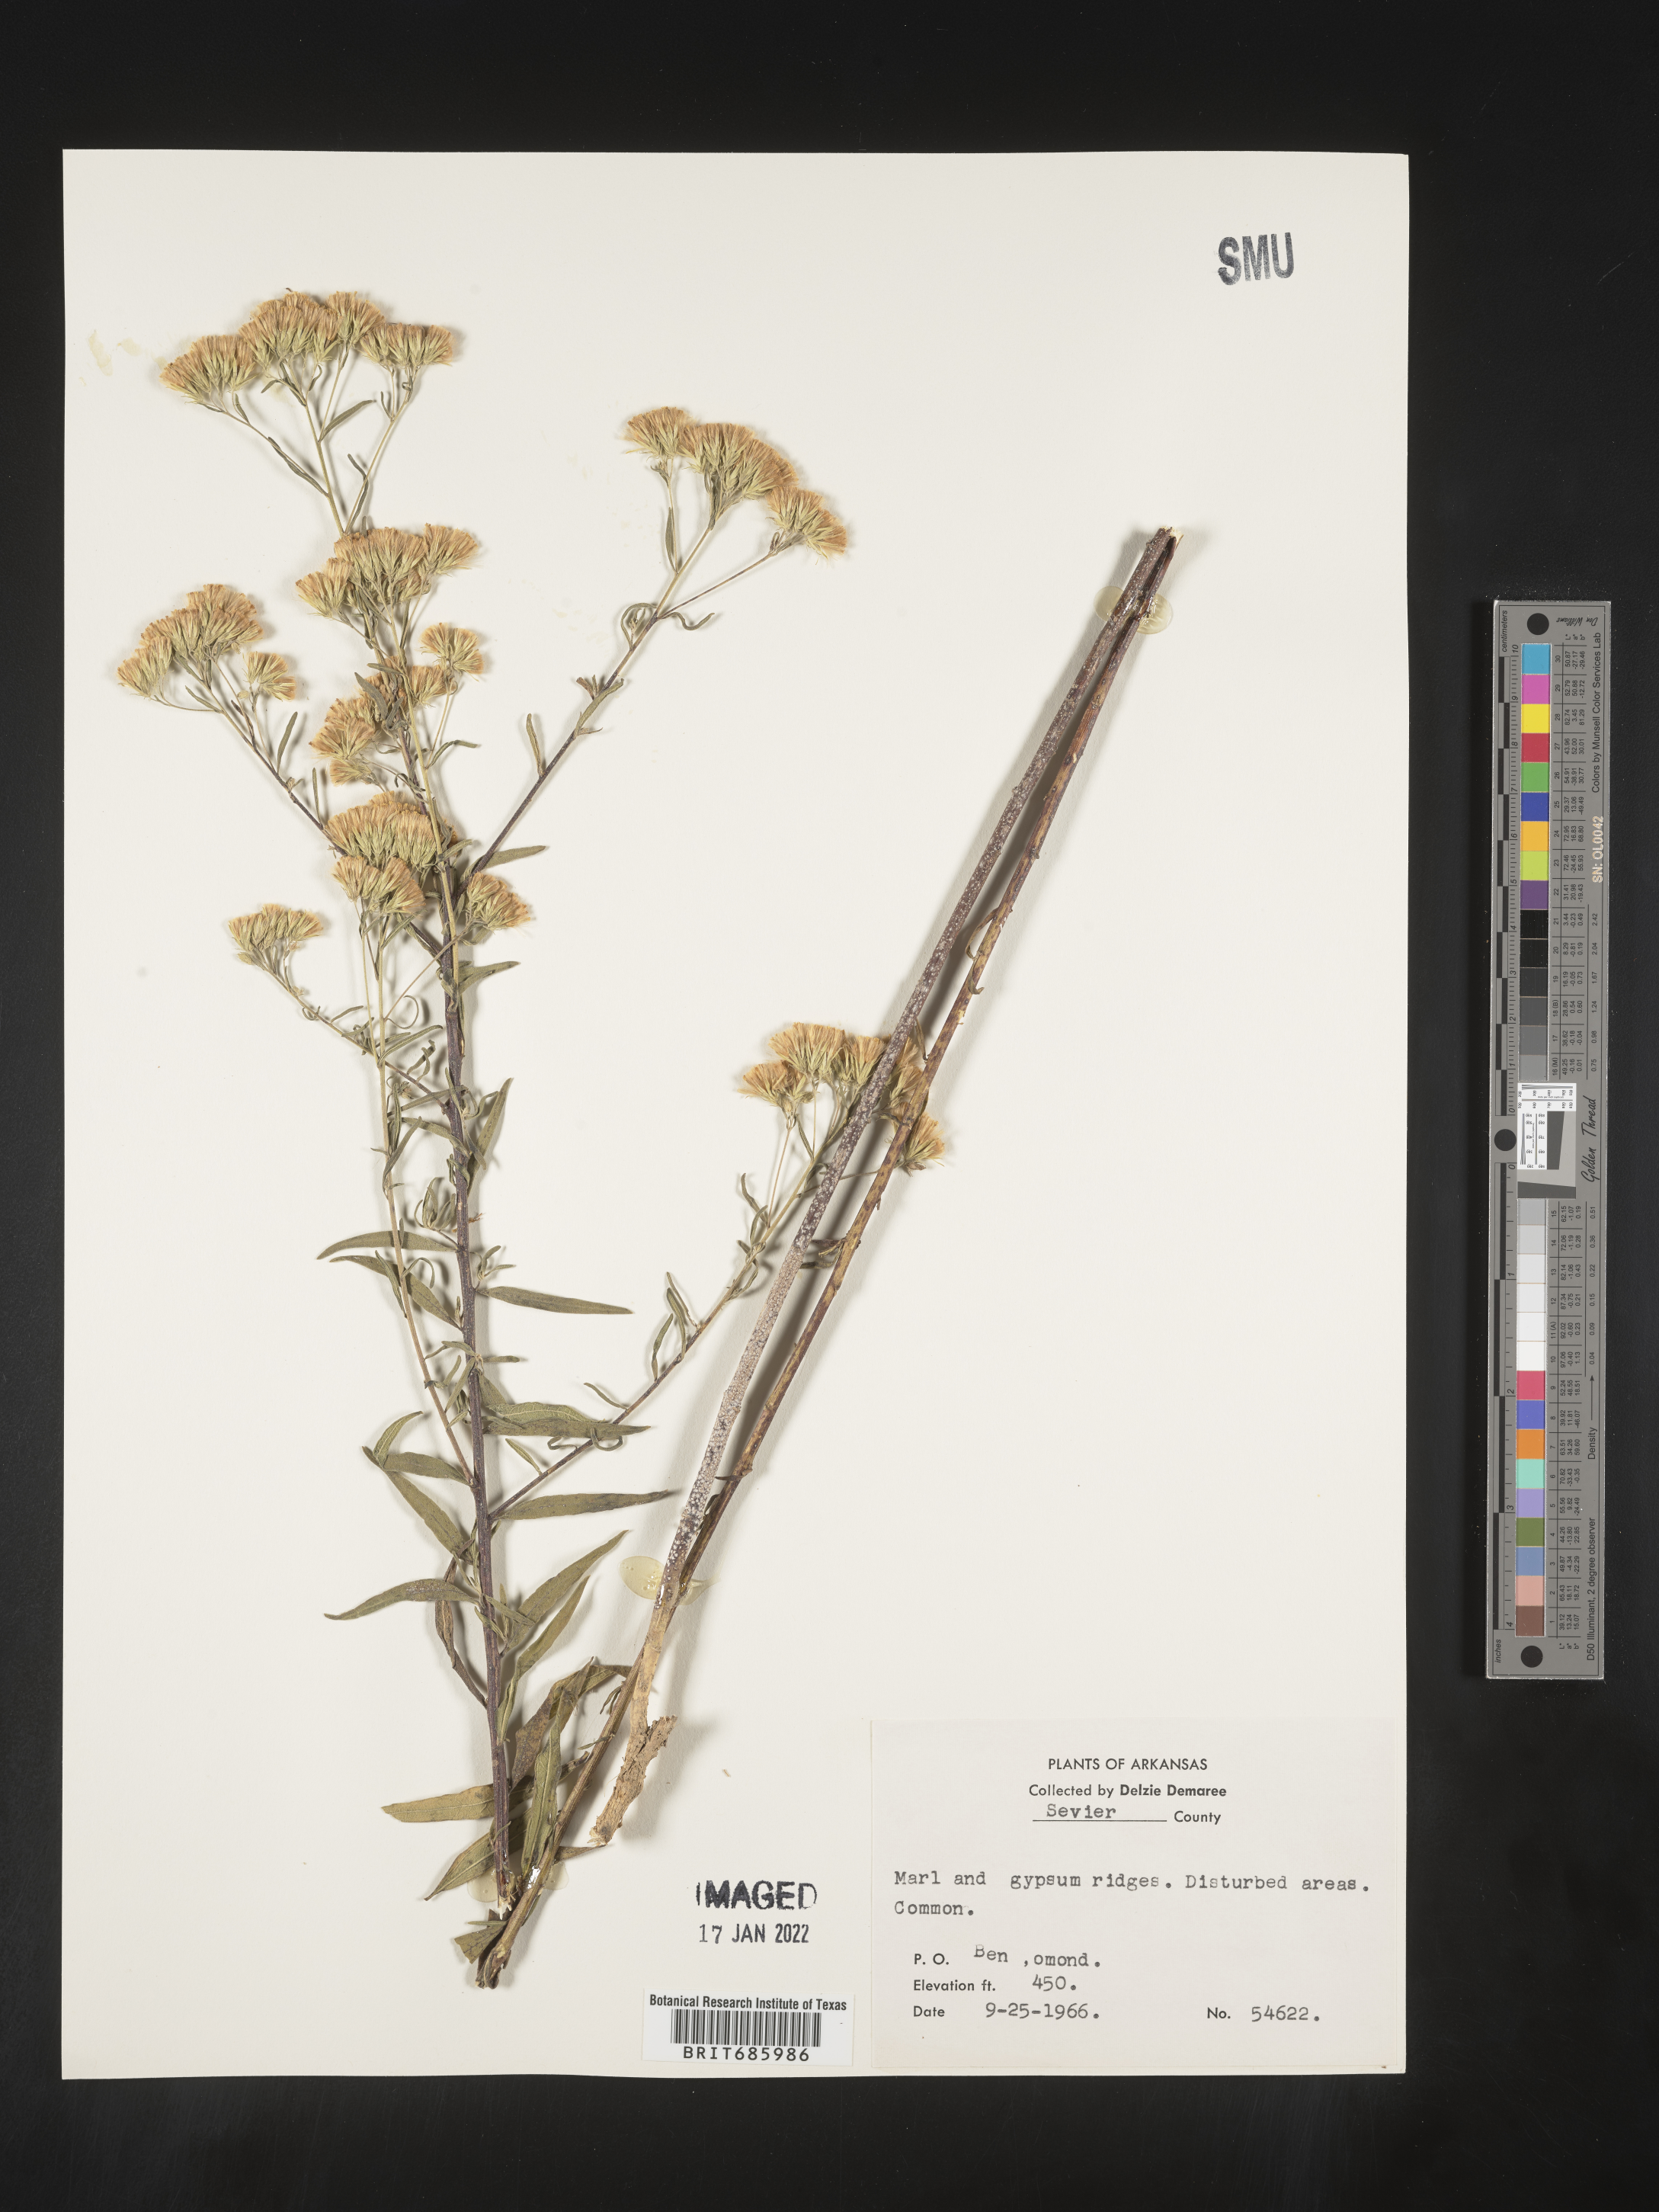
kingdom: Plantae
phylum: Tracheophyta
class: Magnoliopsida
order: Asterales
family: Asteraceae
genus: Brickellia
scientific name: Brickellia eupatorioides
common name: False boneset
